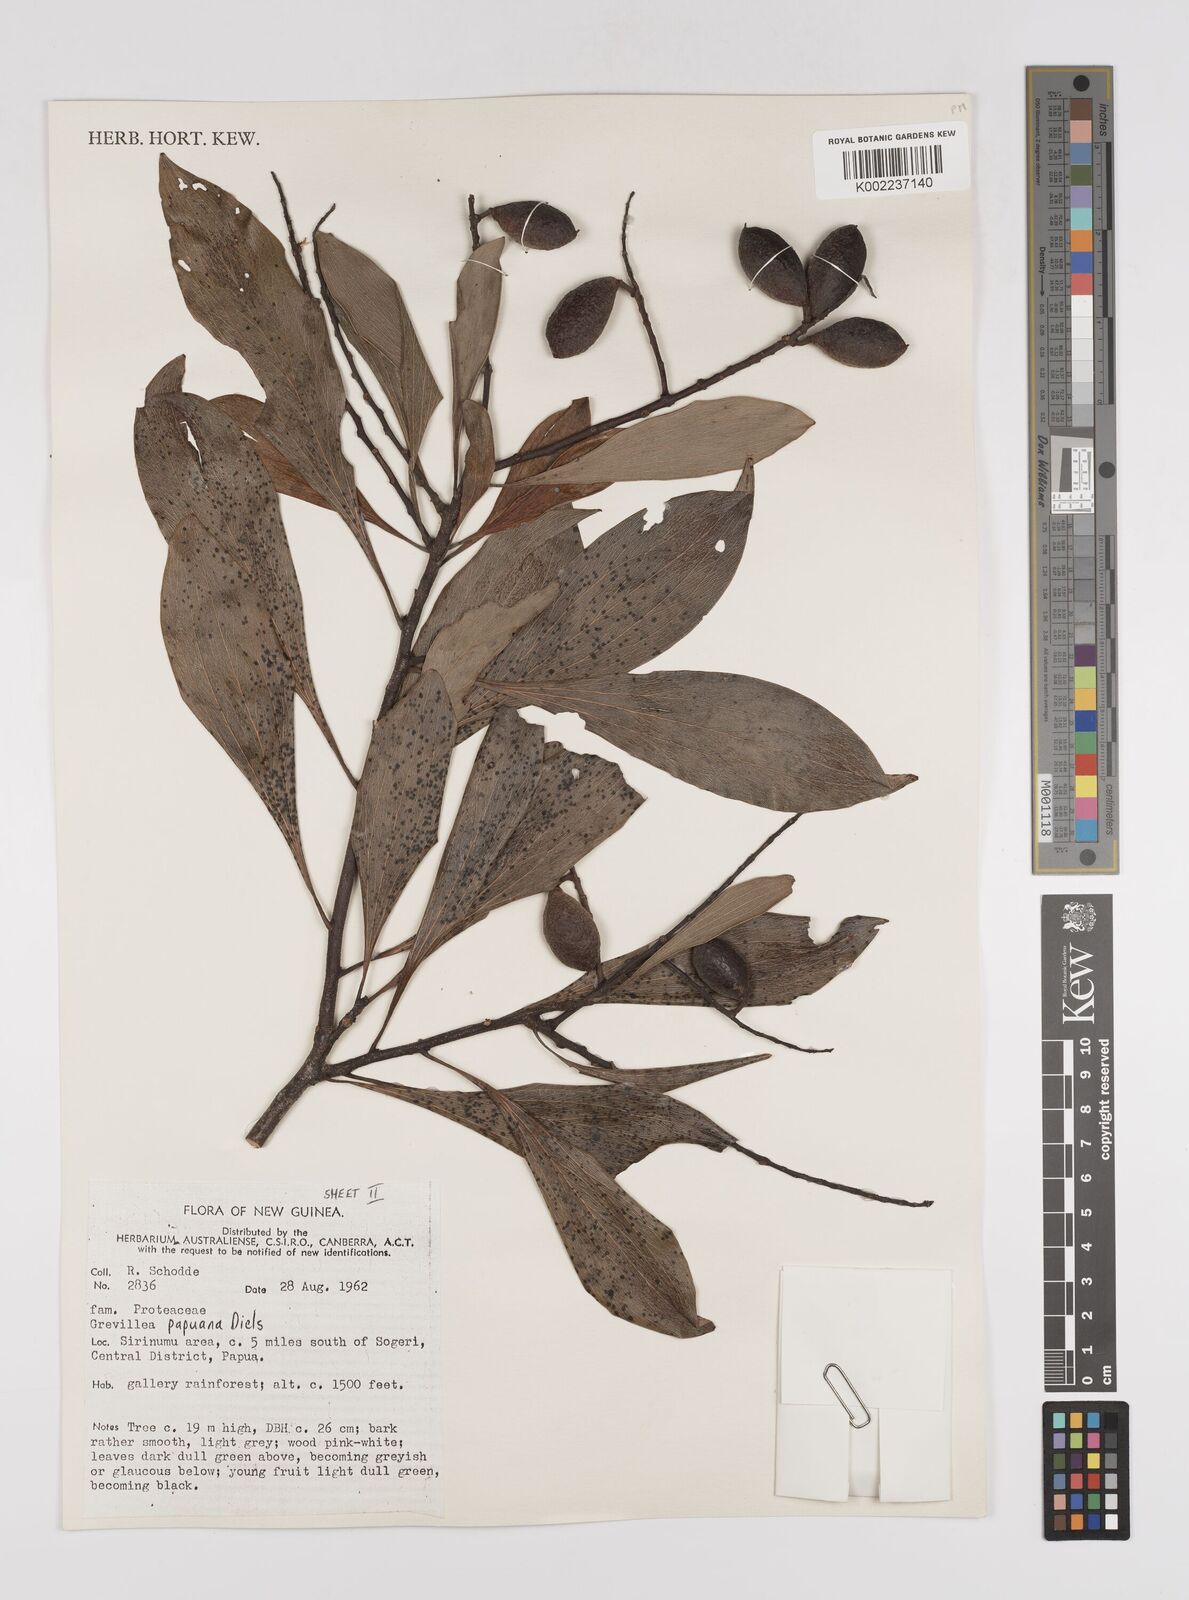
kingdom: Plantae
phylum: Tracheophyta
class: Magnoliopsida
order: Proteales
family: Proteaceae
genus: Grevillea
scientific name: Grevillea papuana
